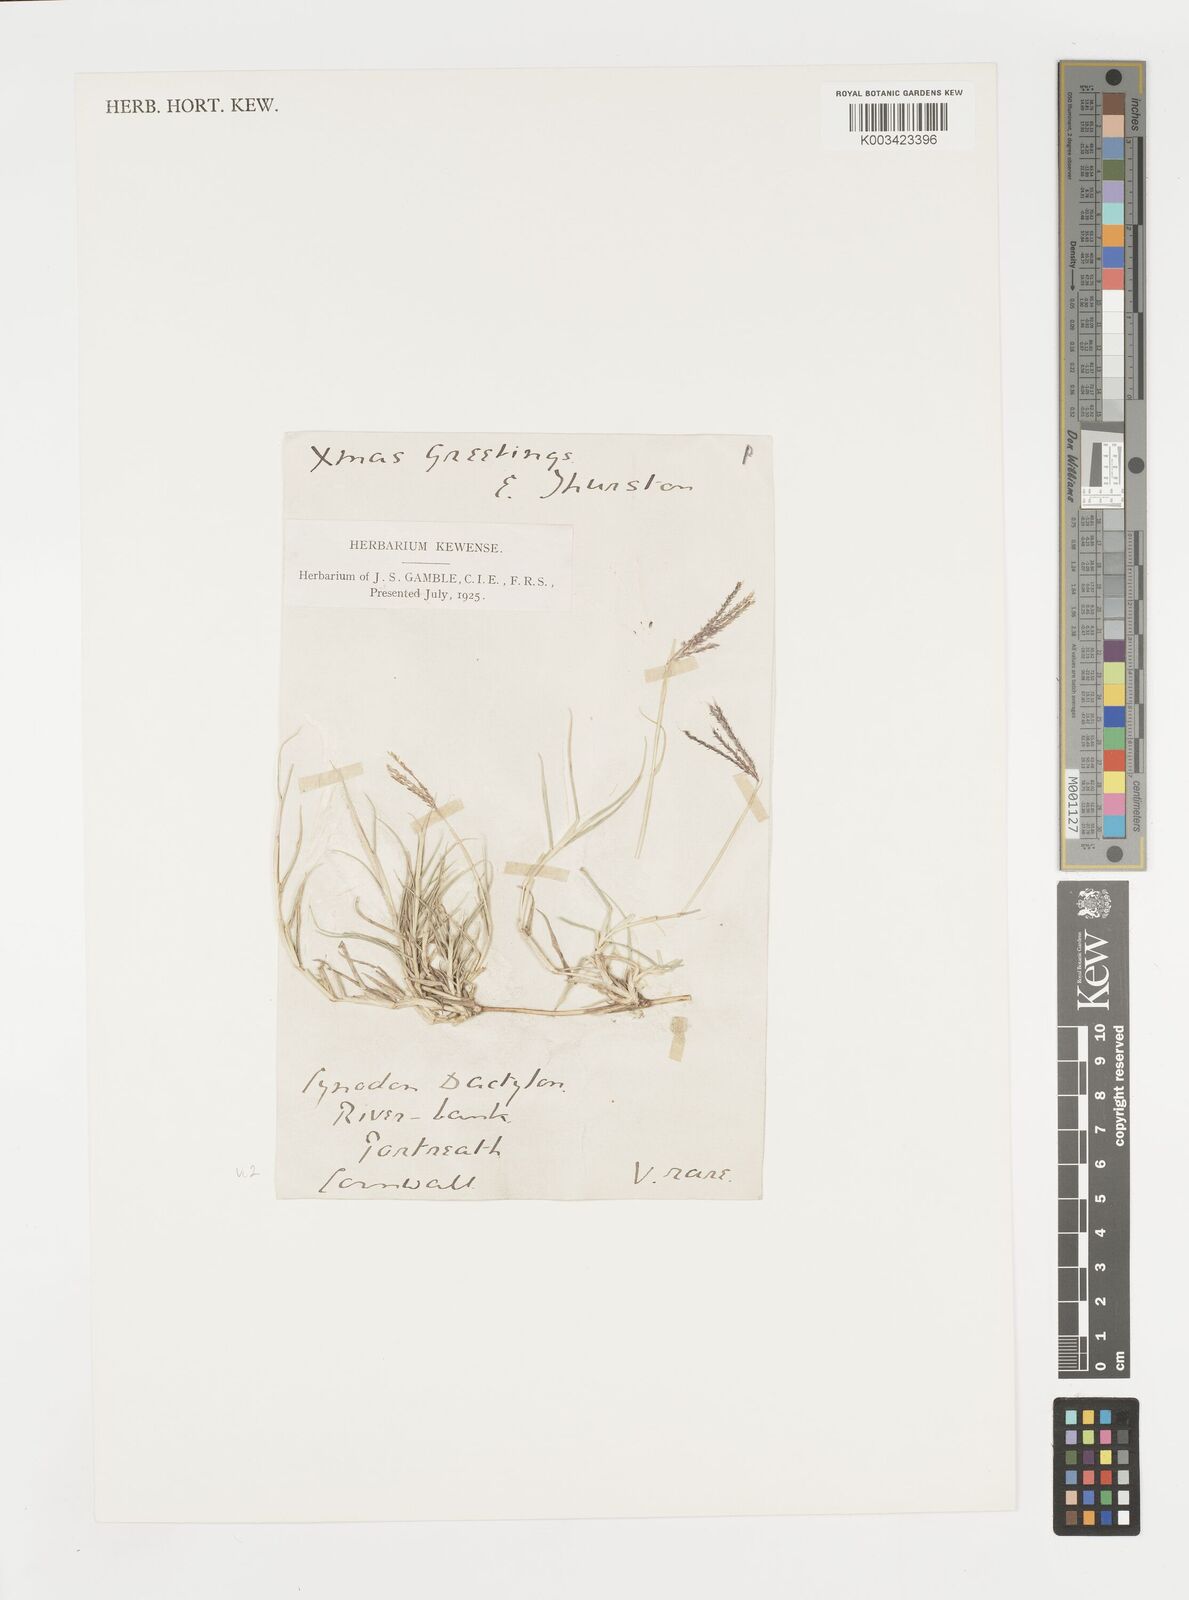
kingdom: Plantae
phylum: Tracheophyta
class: Liliopsida
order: Poales
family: Poaceae
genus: Cynodon
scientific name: Cynodon dactylon
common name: Bermuda grass
